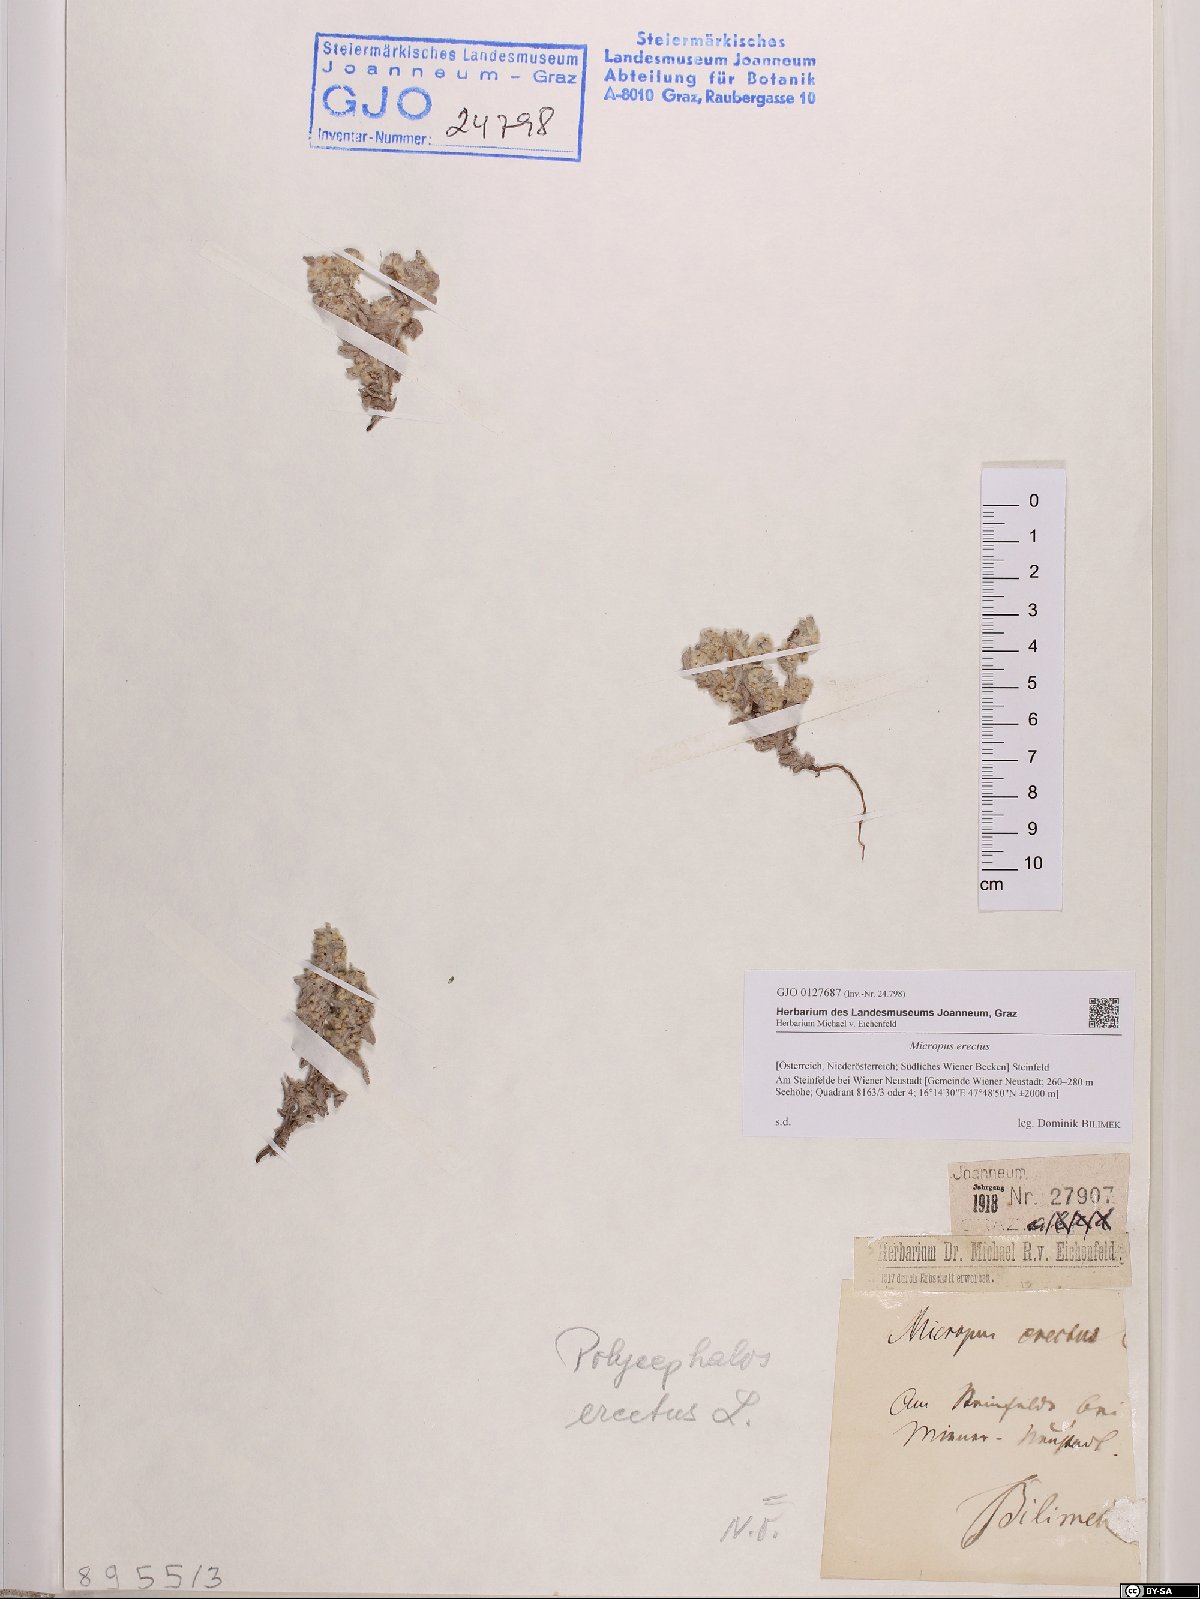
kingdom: Plantae
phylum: Tracheophyta
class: Magnoliopsida
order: Asterales
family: Asteraceae
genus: Bombycilaena
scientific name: Bombycilaena erecta
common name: Micropus
